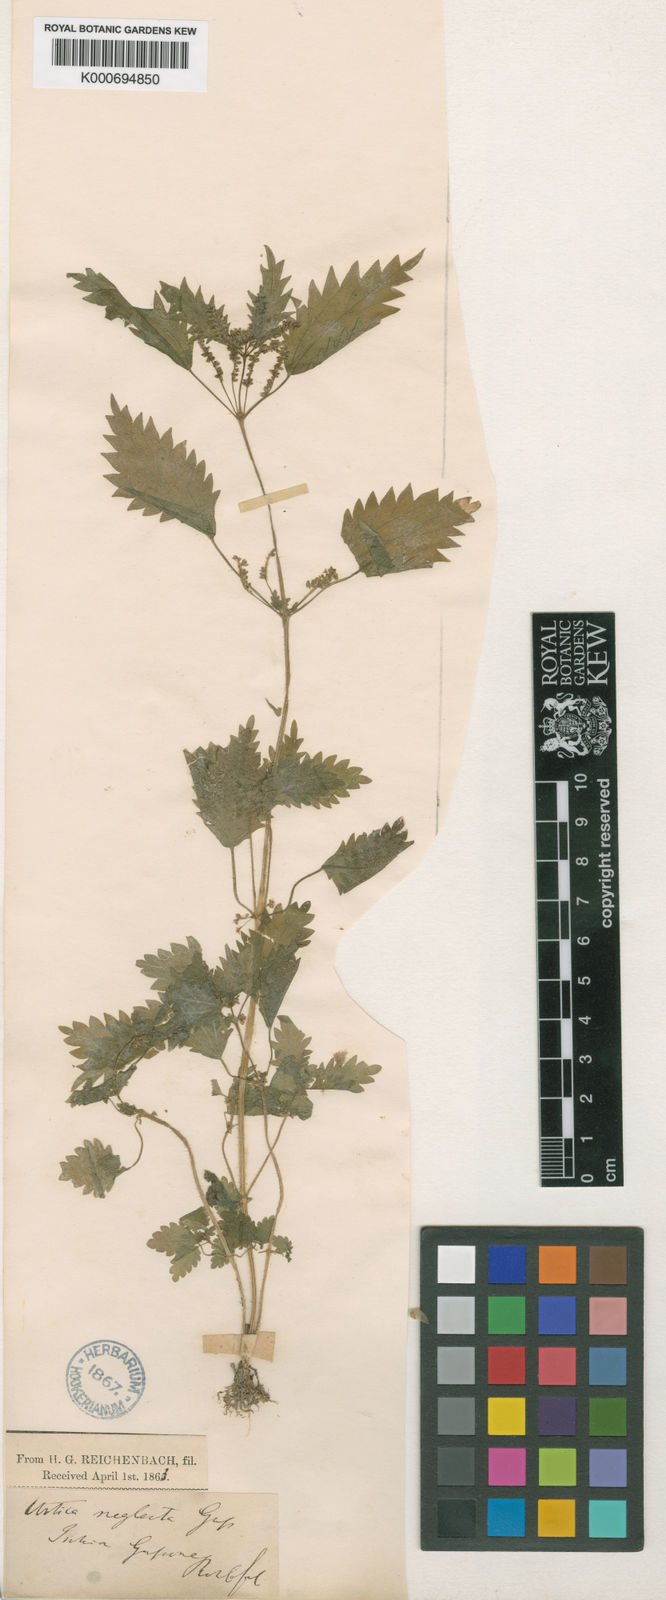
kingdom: Plantae
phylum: Tracheophyta
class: Magnoliopsida
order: Rosales
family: Urticaceae
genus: Urtica
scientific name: Urtica
